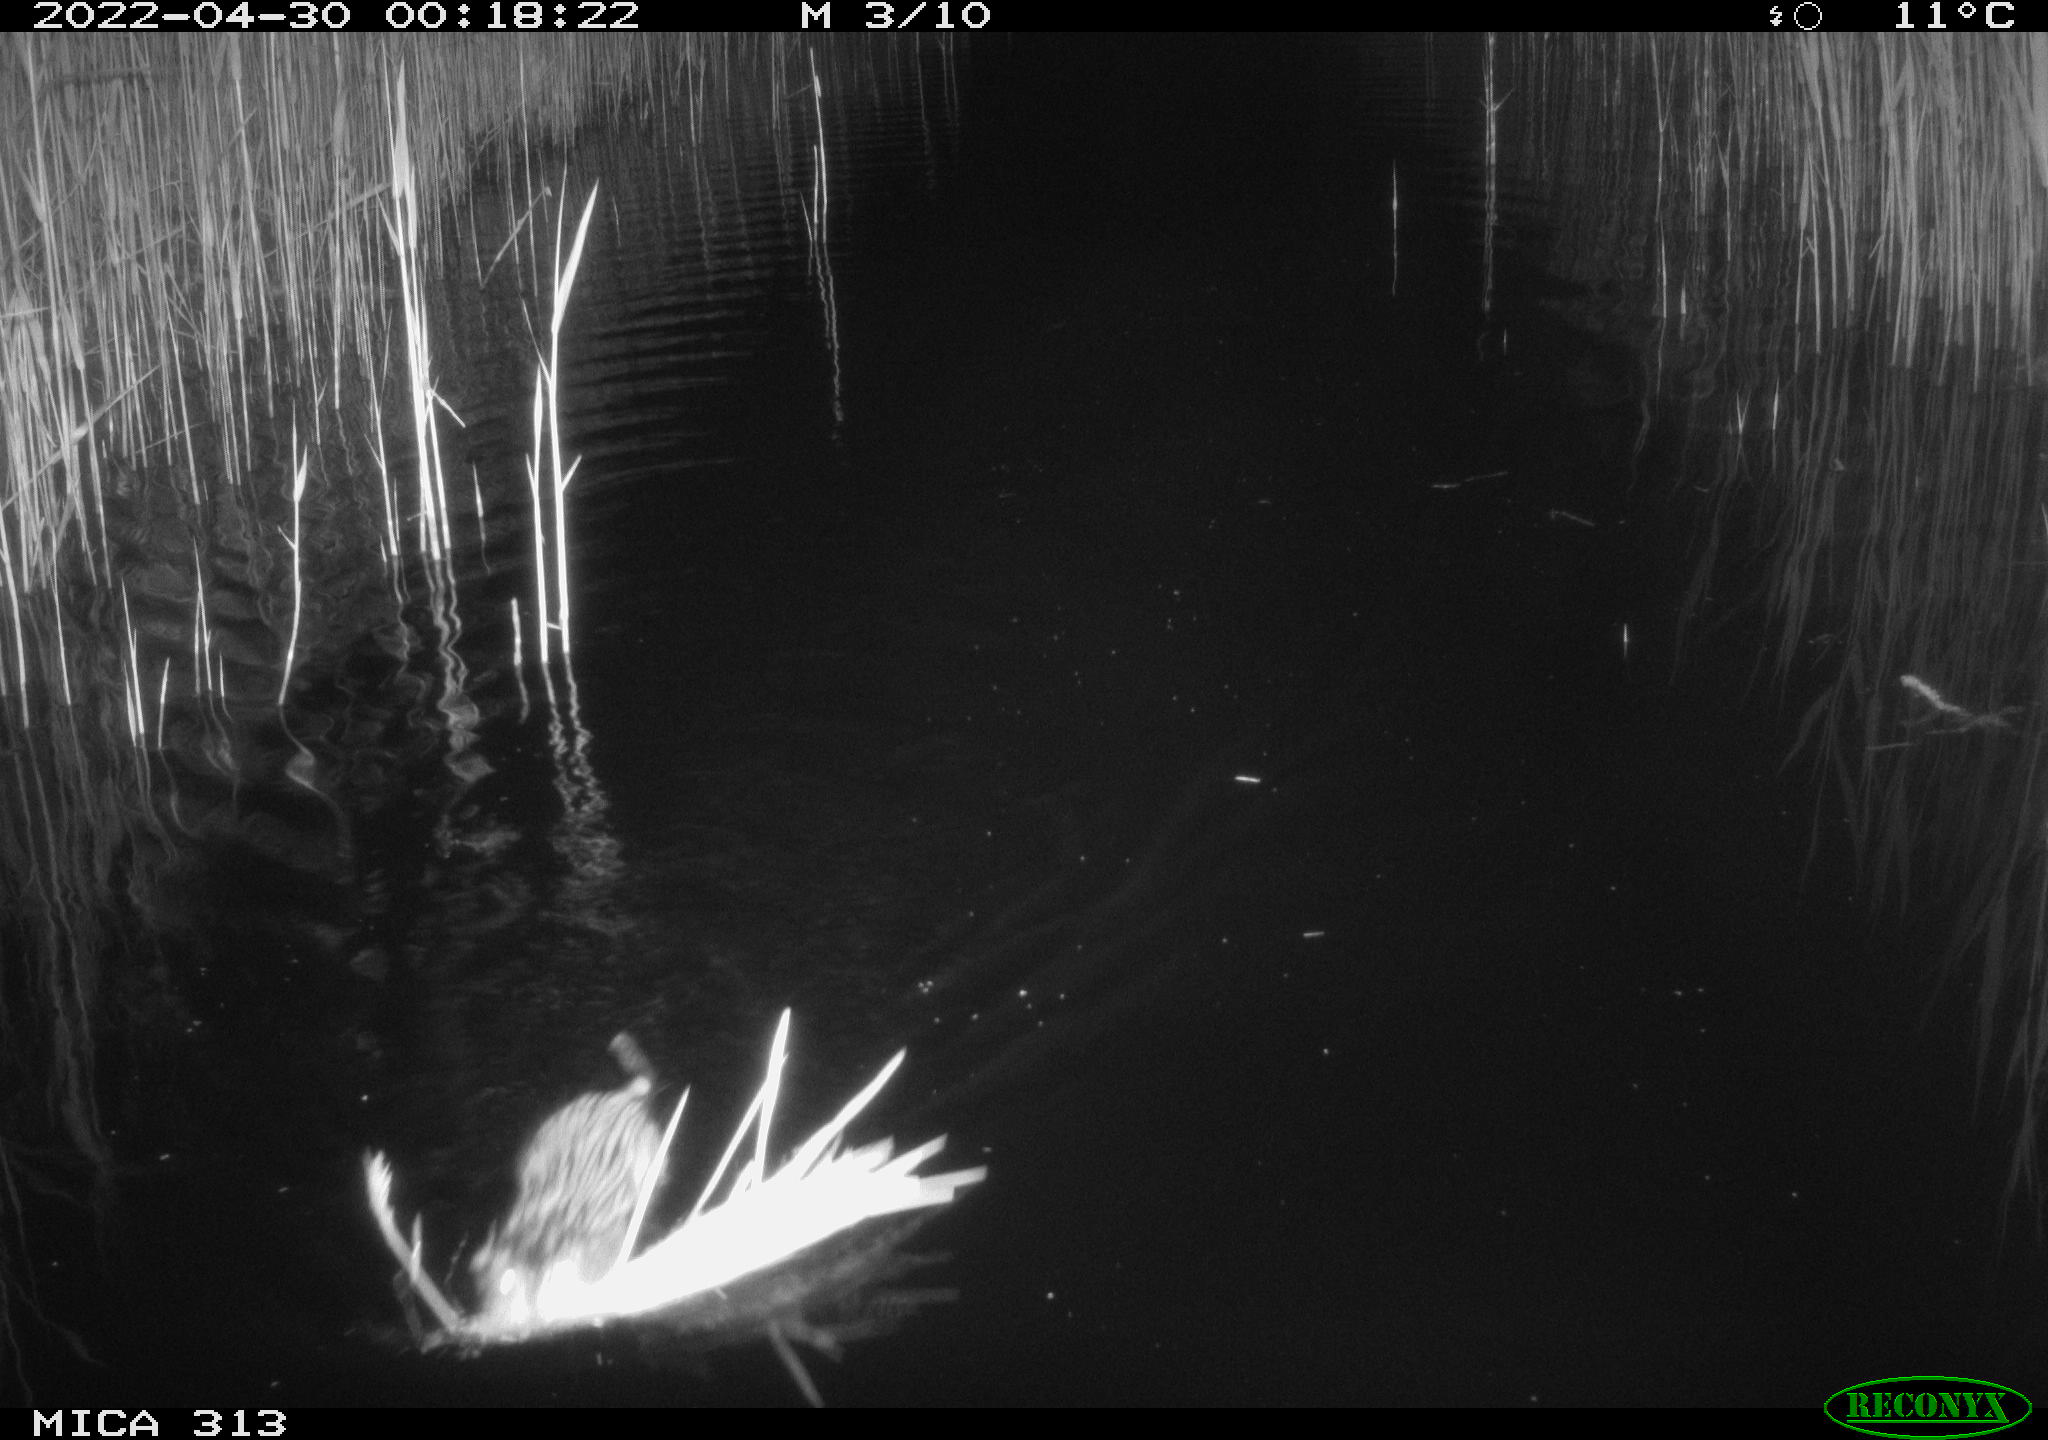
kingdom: Animalia
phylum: Chordata
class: Mammalia
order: Rodentia
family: Cricetidae
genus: Ondatra
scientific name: Ondatra zibethicus
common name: Muskrat
